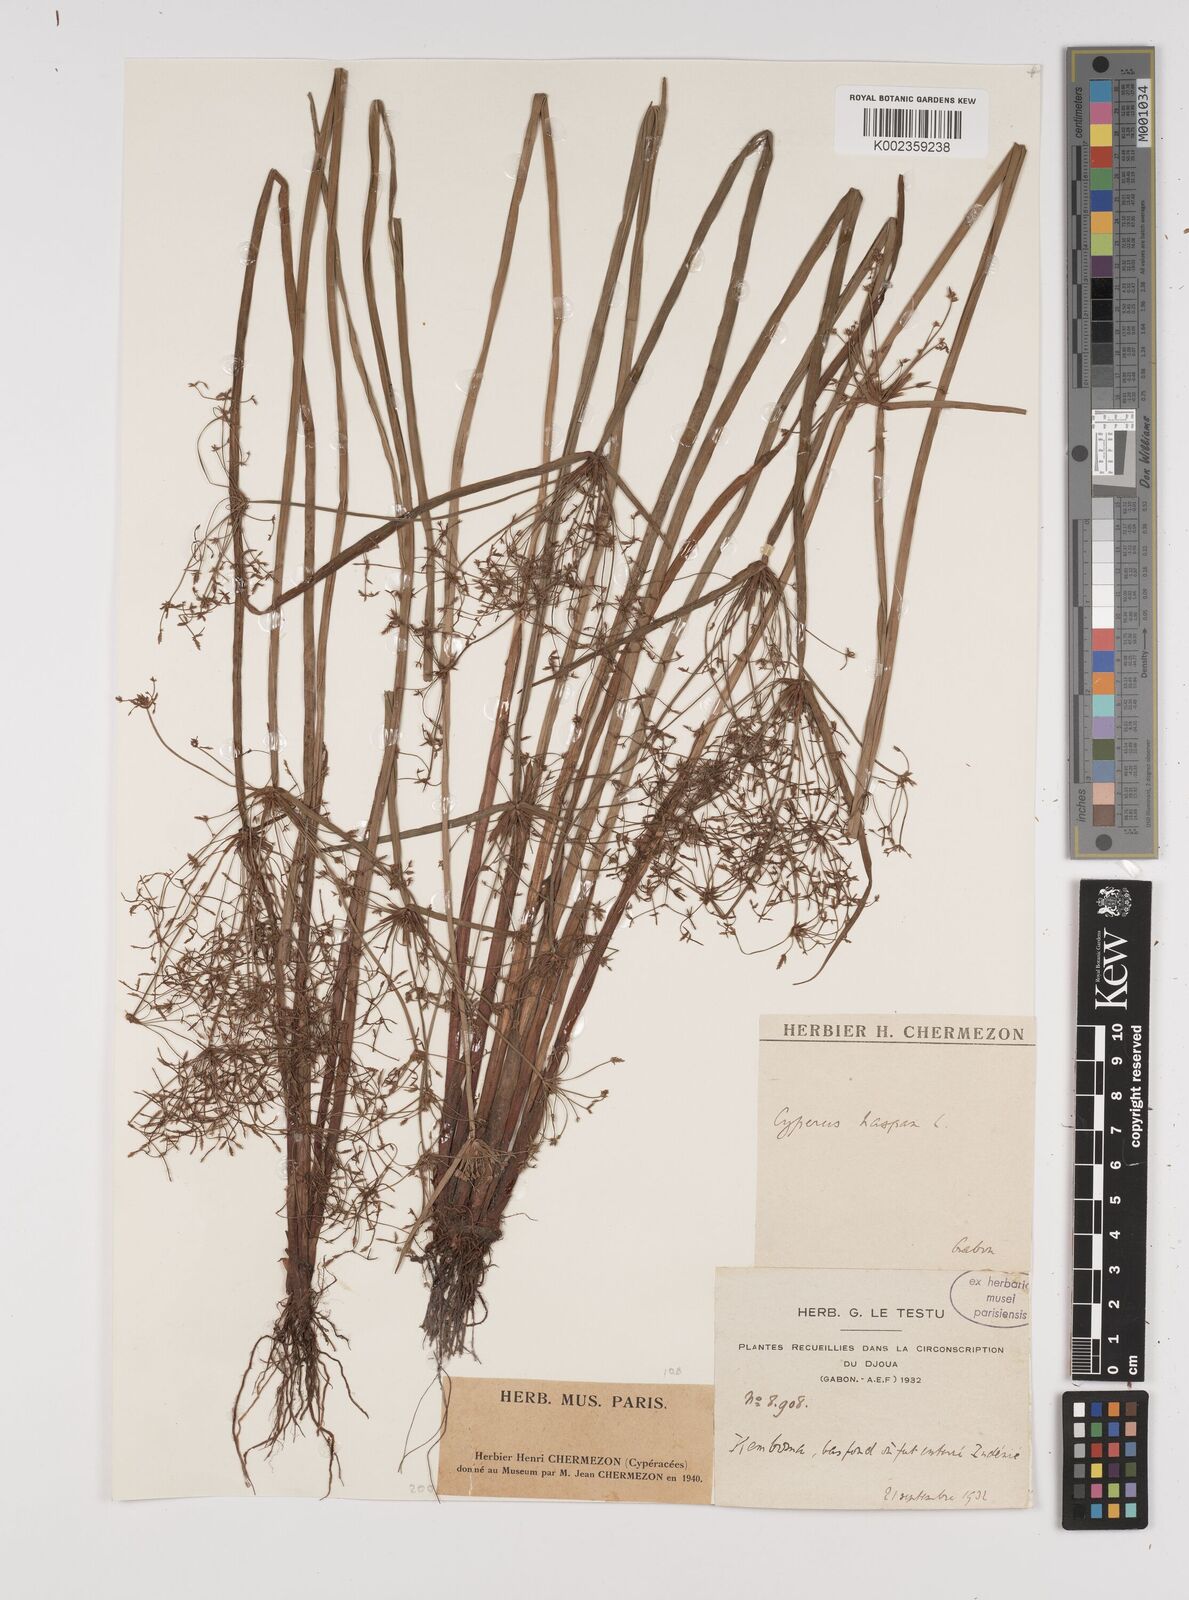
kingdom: Plantae
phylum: Tracheophyta
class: Liliopsida
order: Poales
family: Cyperaceae
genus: Cyperus
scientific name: Cyperus haspan
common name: Haspan flatsedge
